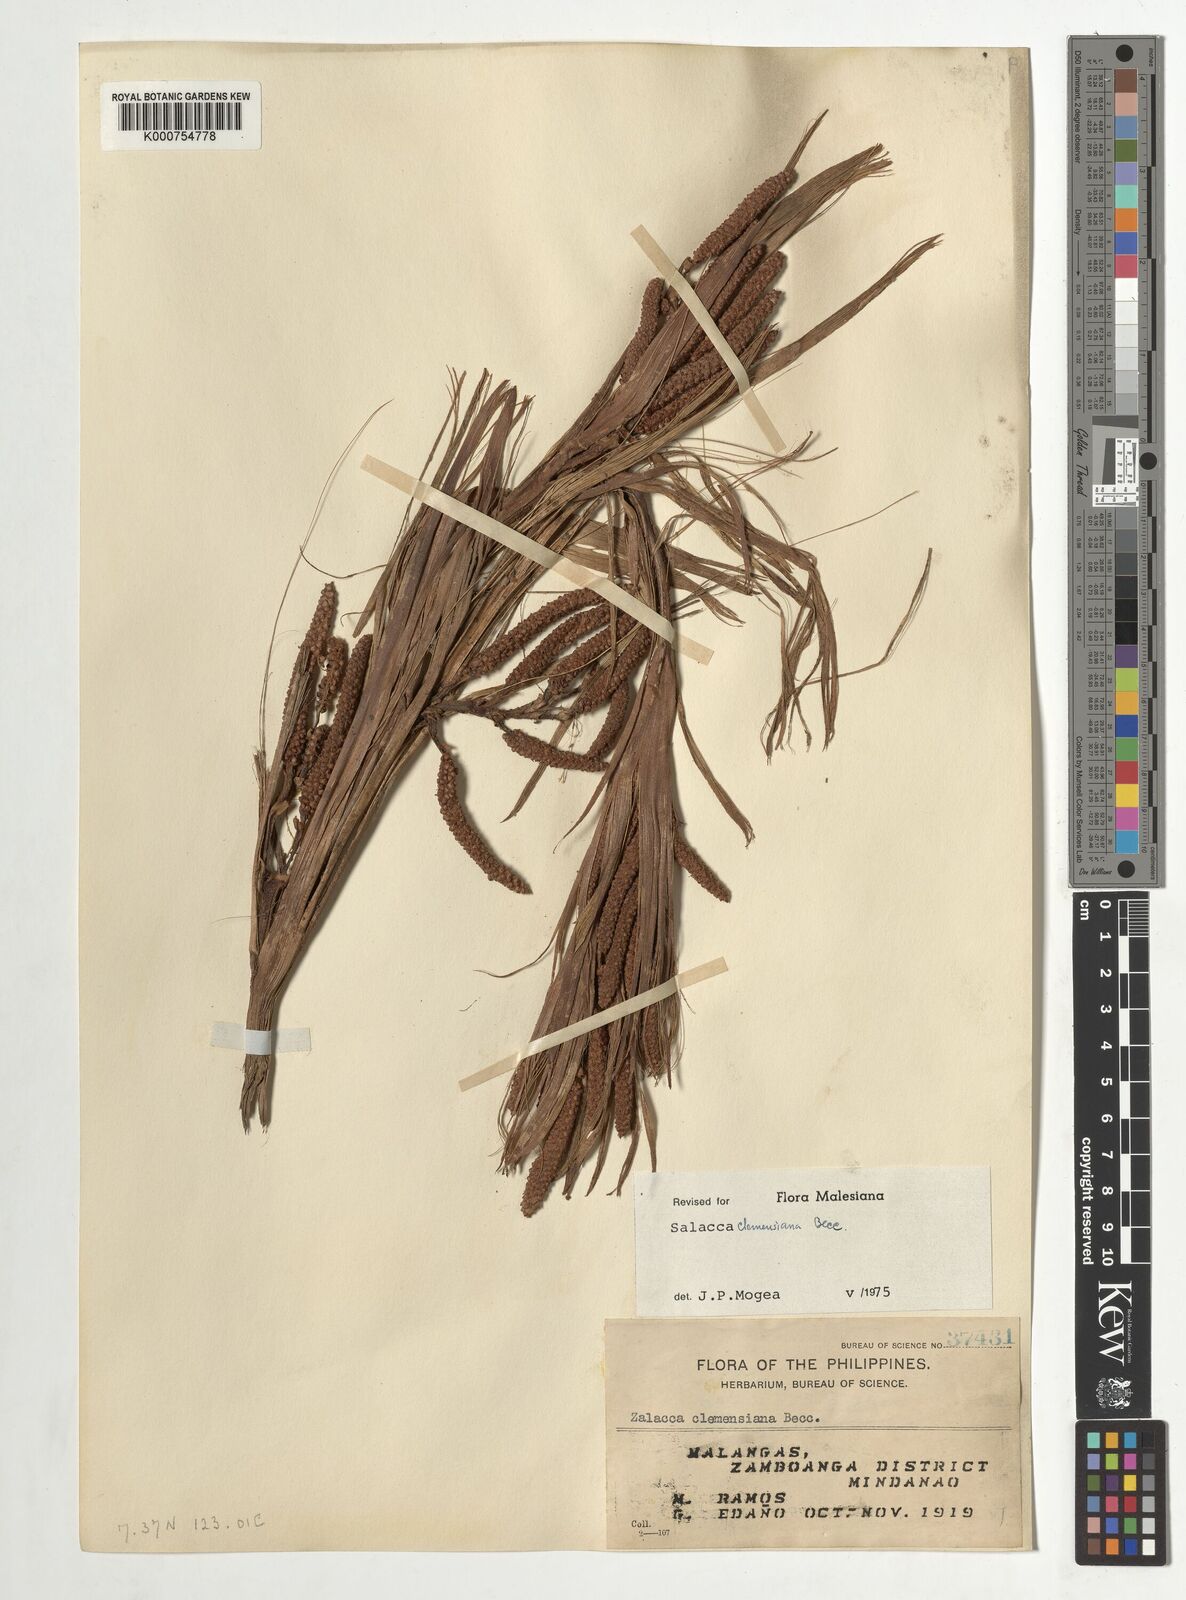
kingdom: Plantae
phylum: Tracheophyta
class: Liliopsida
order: Arecales
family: Arecaceae
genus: Salacca
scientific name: Salacca clemensiana
